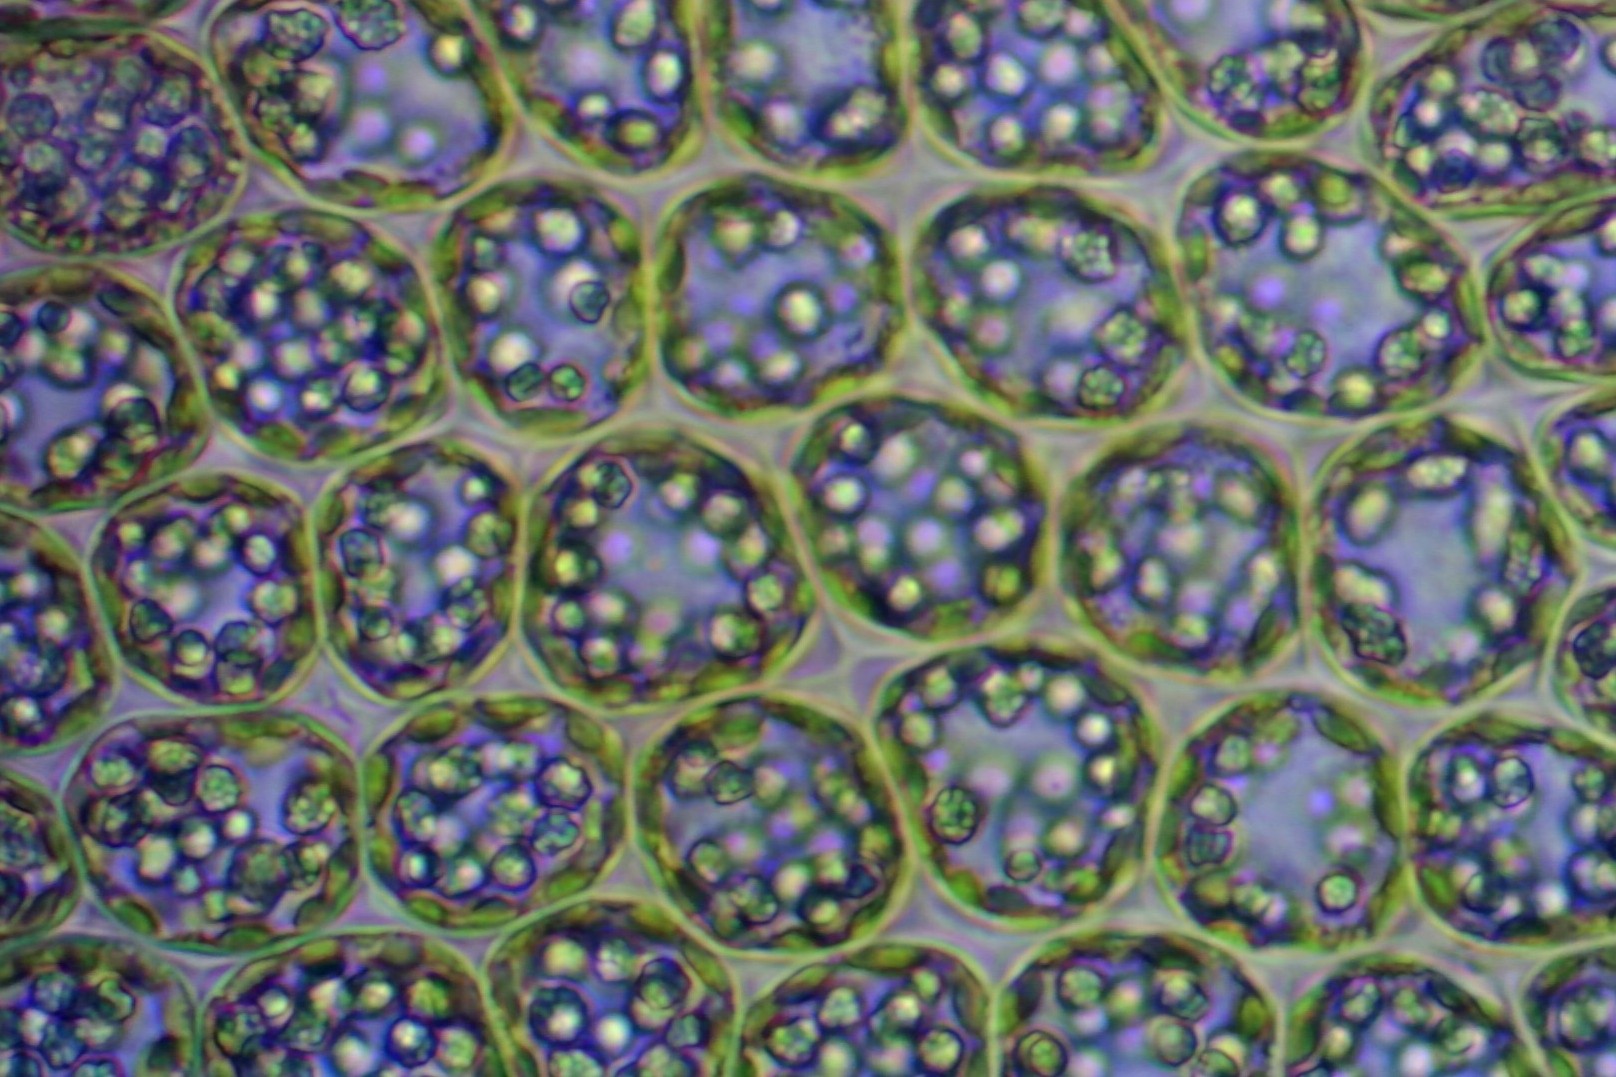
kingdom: Plantae
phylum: Marchantiophyta
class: Jungermanniopsida
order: Jungermanniales
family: Lophoziaceae
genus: Tritomaria
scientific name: Tritomaria exsectiformis
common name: Skævbladet tretand
